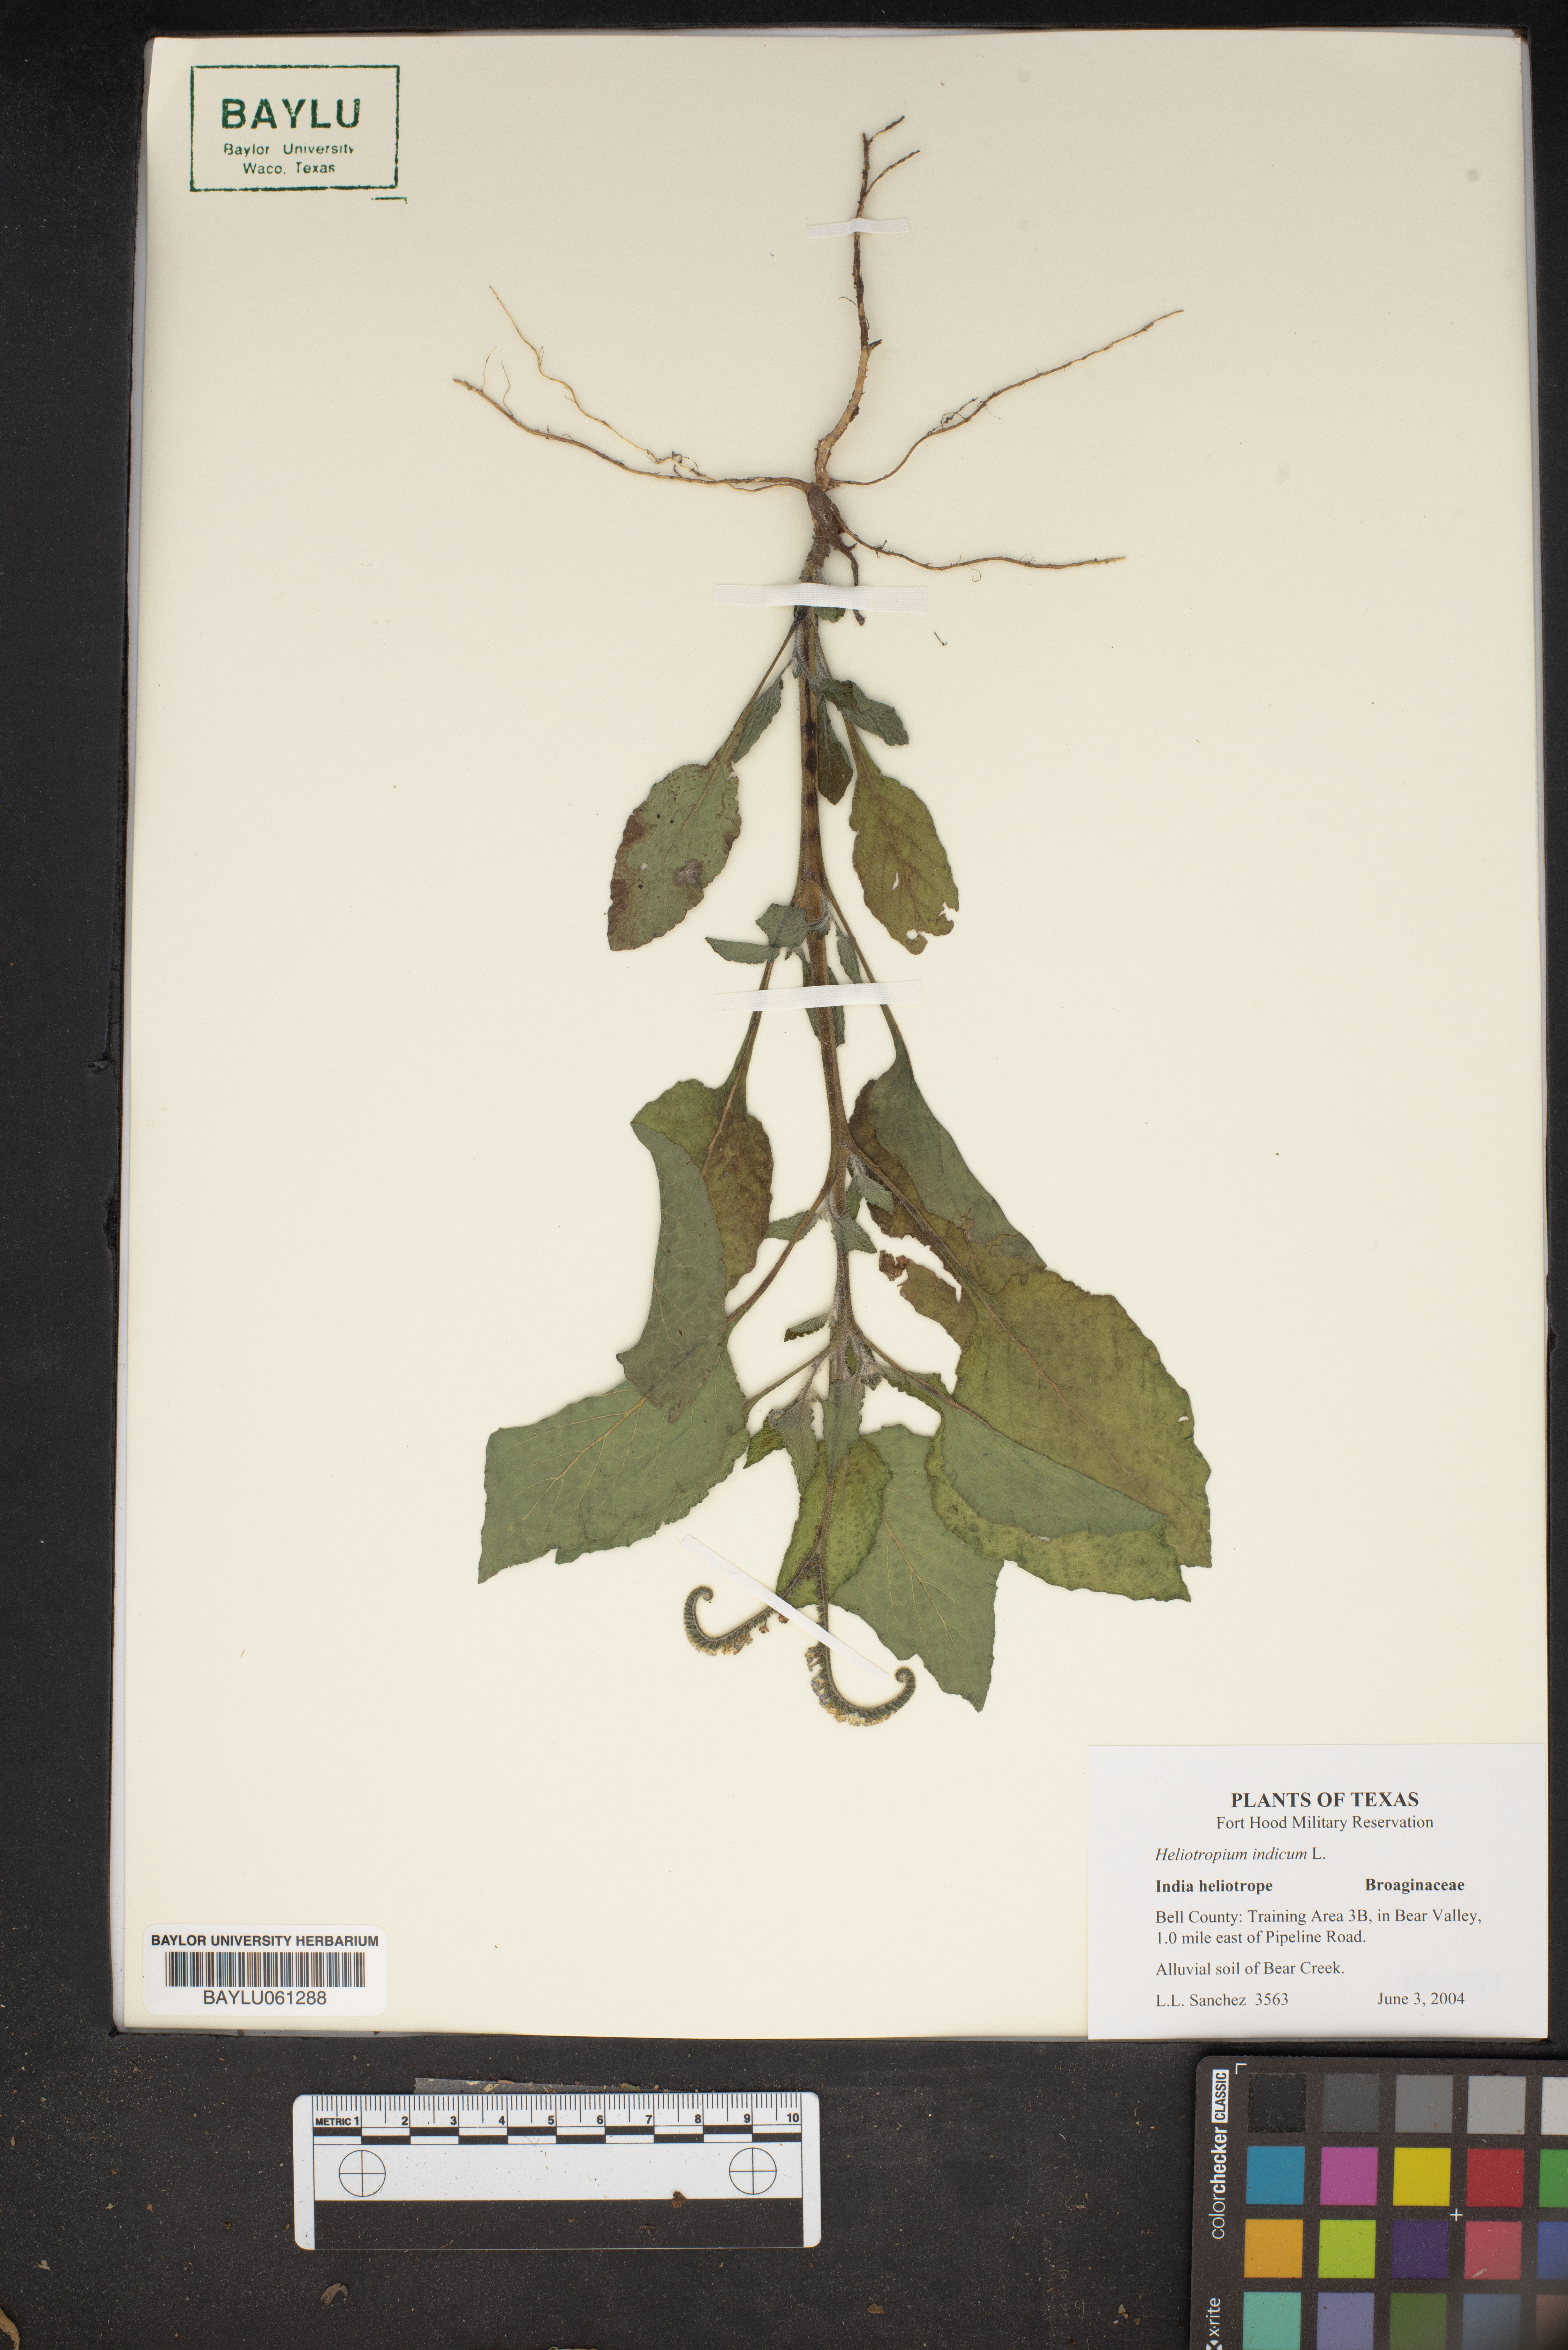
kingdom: Plantae
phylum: Tracheophyta
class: Magnoliopsida
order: Boraginales
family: Heliotropiaceae
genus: Heliotropium
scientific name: Heliotropium indicum
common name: Indian heliotrope
